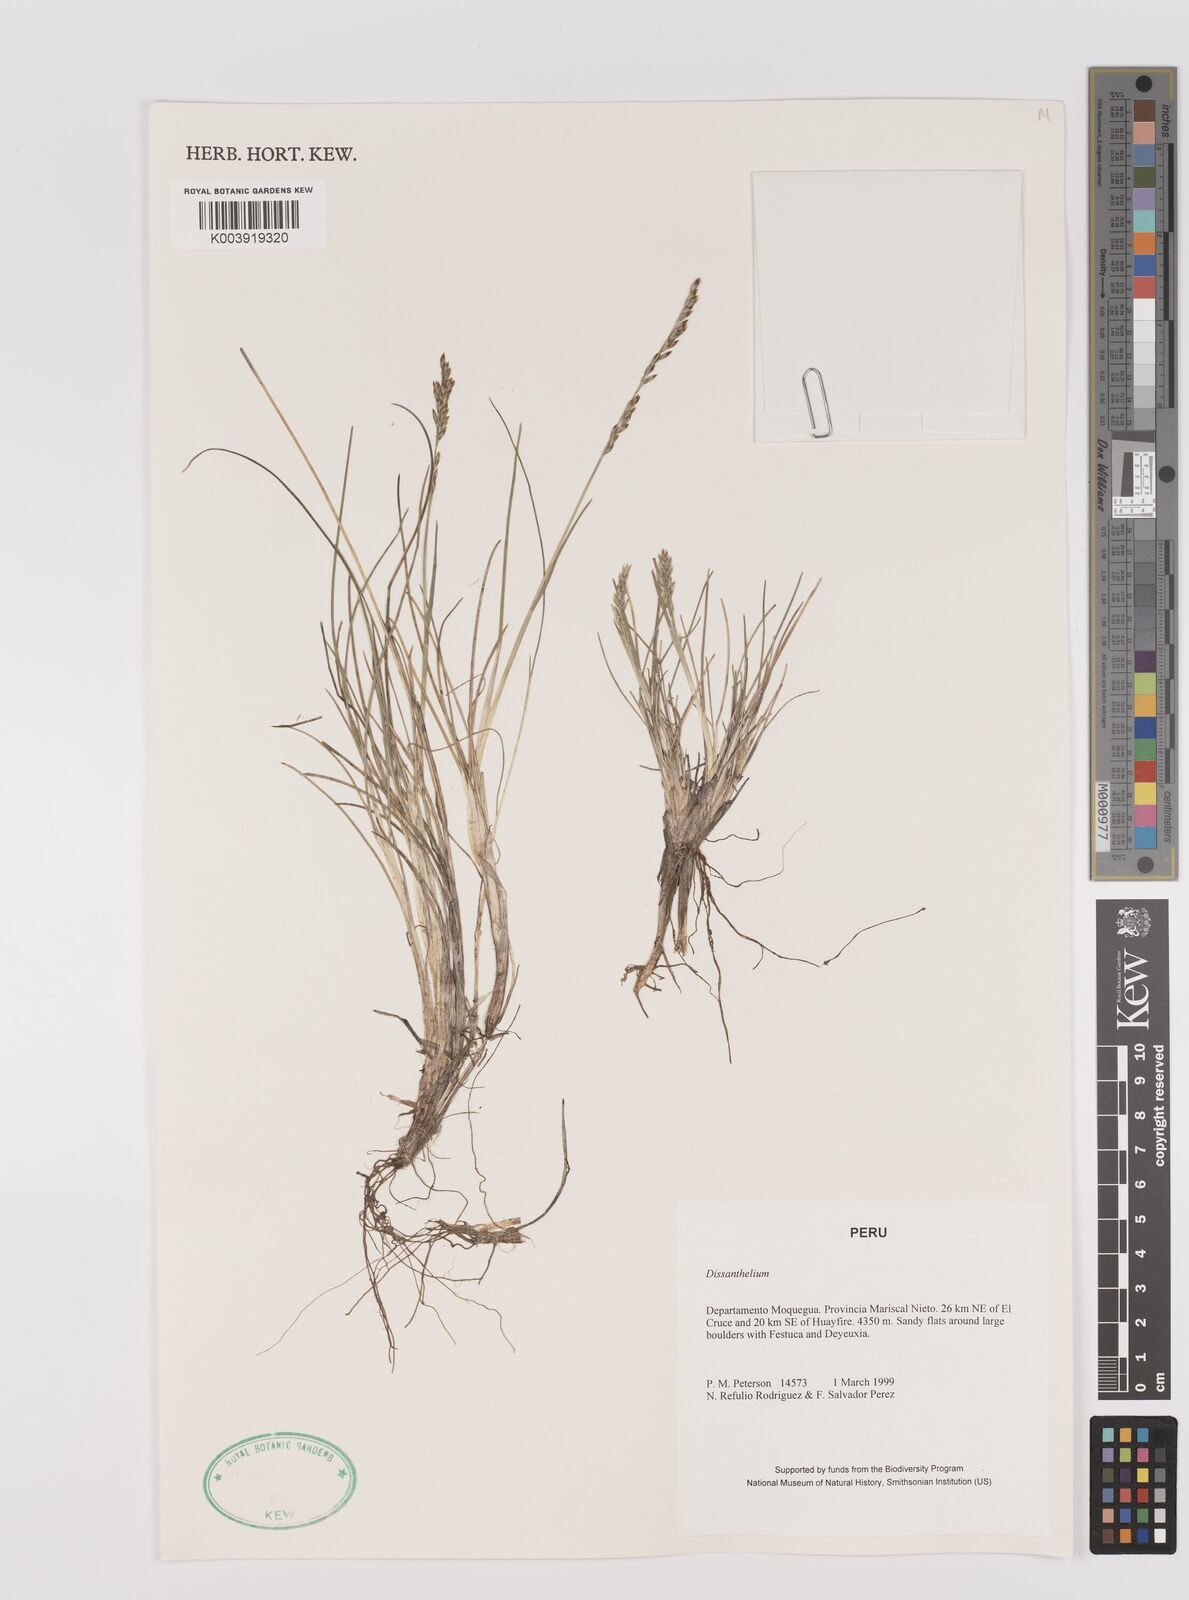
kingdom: Plantae
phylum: Tracheophyta
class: Liliopsida
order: Poales
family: Poaceae
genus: Poa
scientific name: Poa
